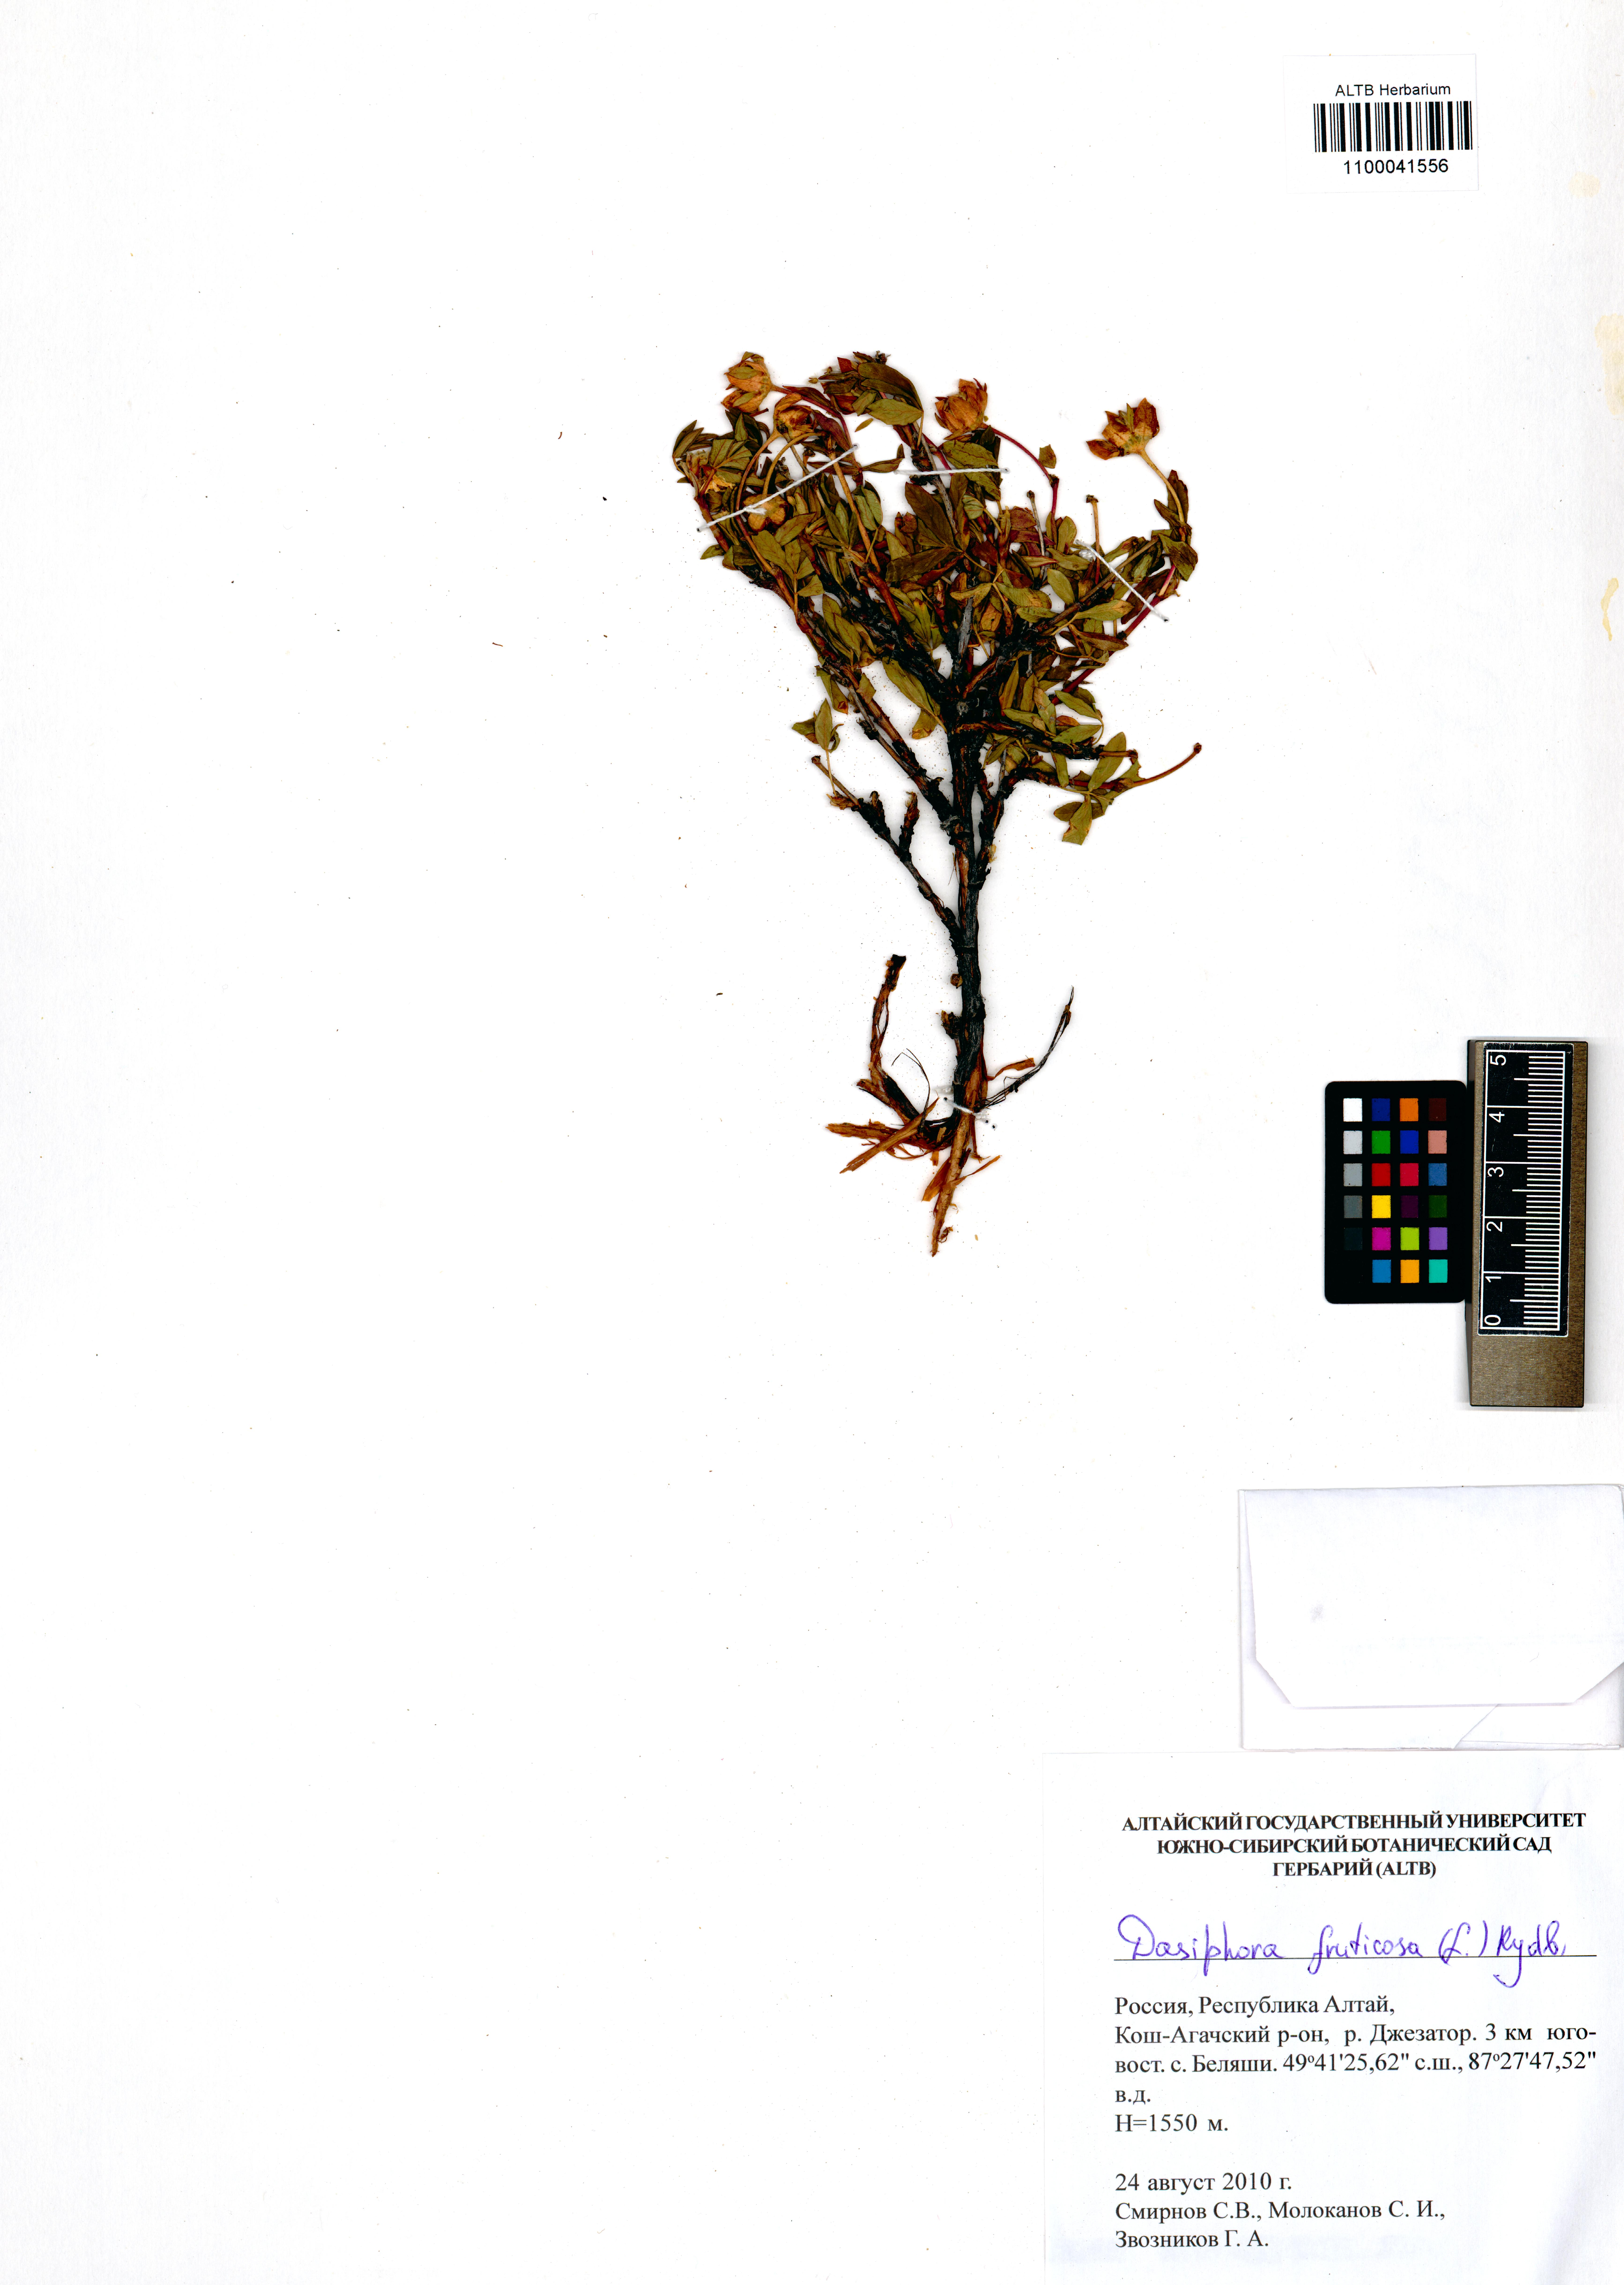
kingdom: Plantae
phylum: Tracheophyta
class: Magnoliopsida
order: Rosales
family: Rosaceae
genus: Dasiphora
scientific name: Dasiphora fruticosa
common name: Shrubby cinquefoil
